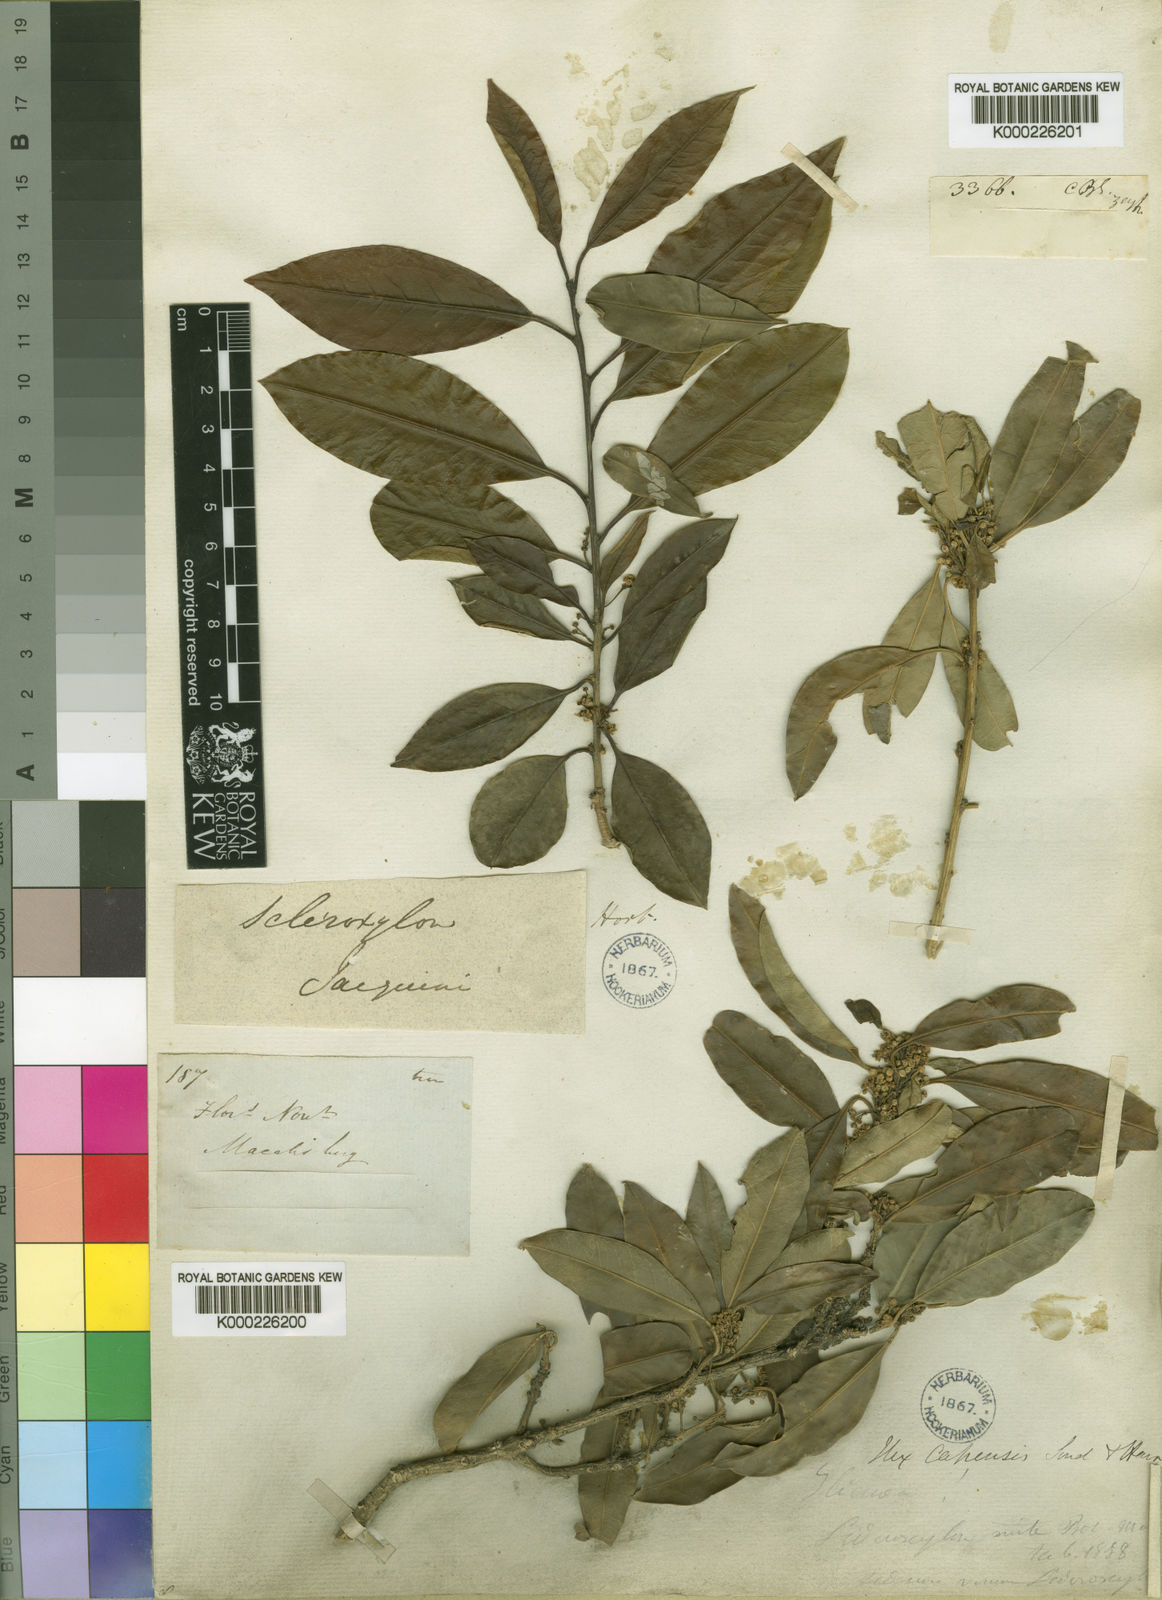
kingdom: Plantae
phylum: Tracheophyta
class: Magnoliopsida
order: Aquifoliales
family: Aquifoliaceae
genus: Ilex
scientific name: Ilex mitis
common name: African holly
